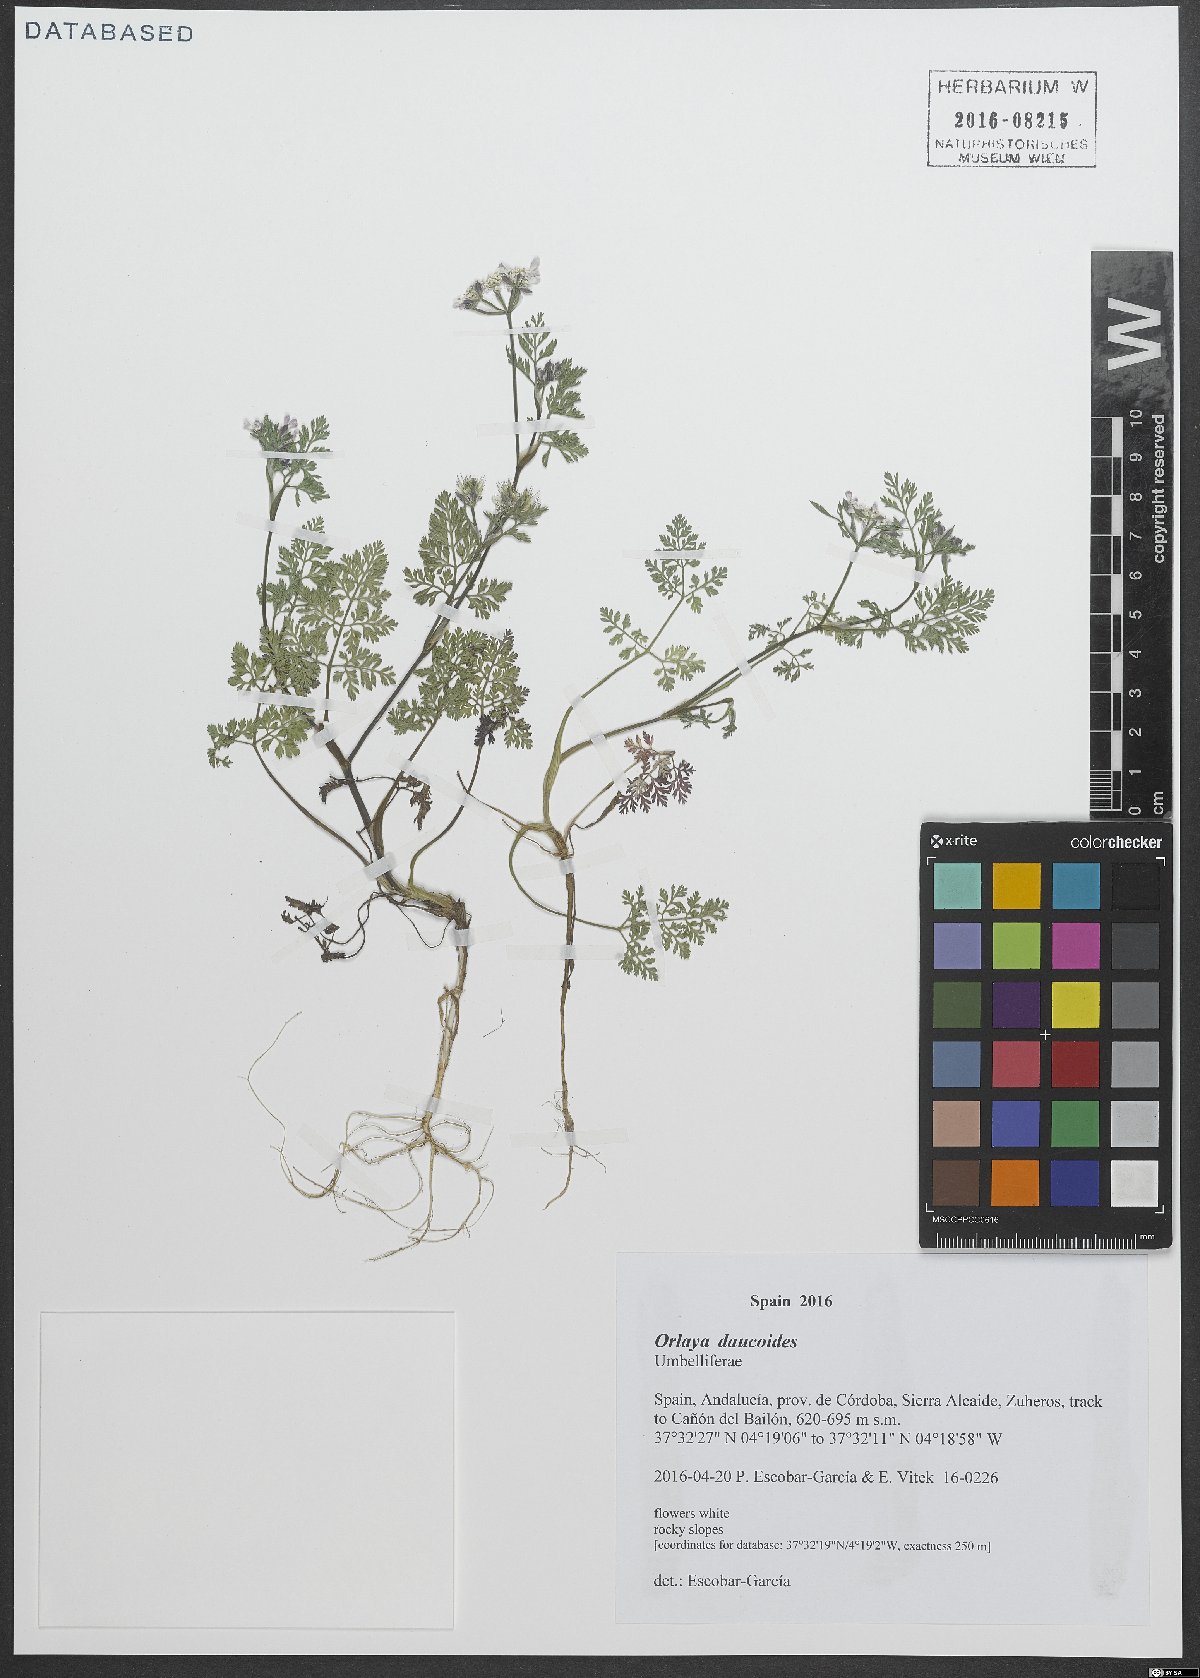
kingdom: Plantae
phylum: Tracheophyta
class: Magnoliopsida
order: Apiales
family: Apiaceae
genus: Orlaya
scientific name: Orlaya daucoides
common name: Flat-fruit orlaya
